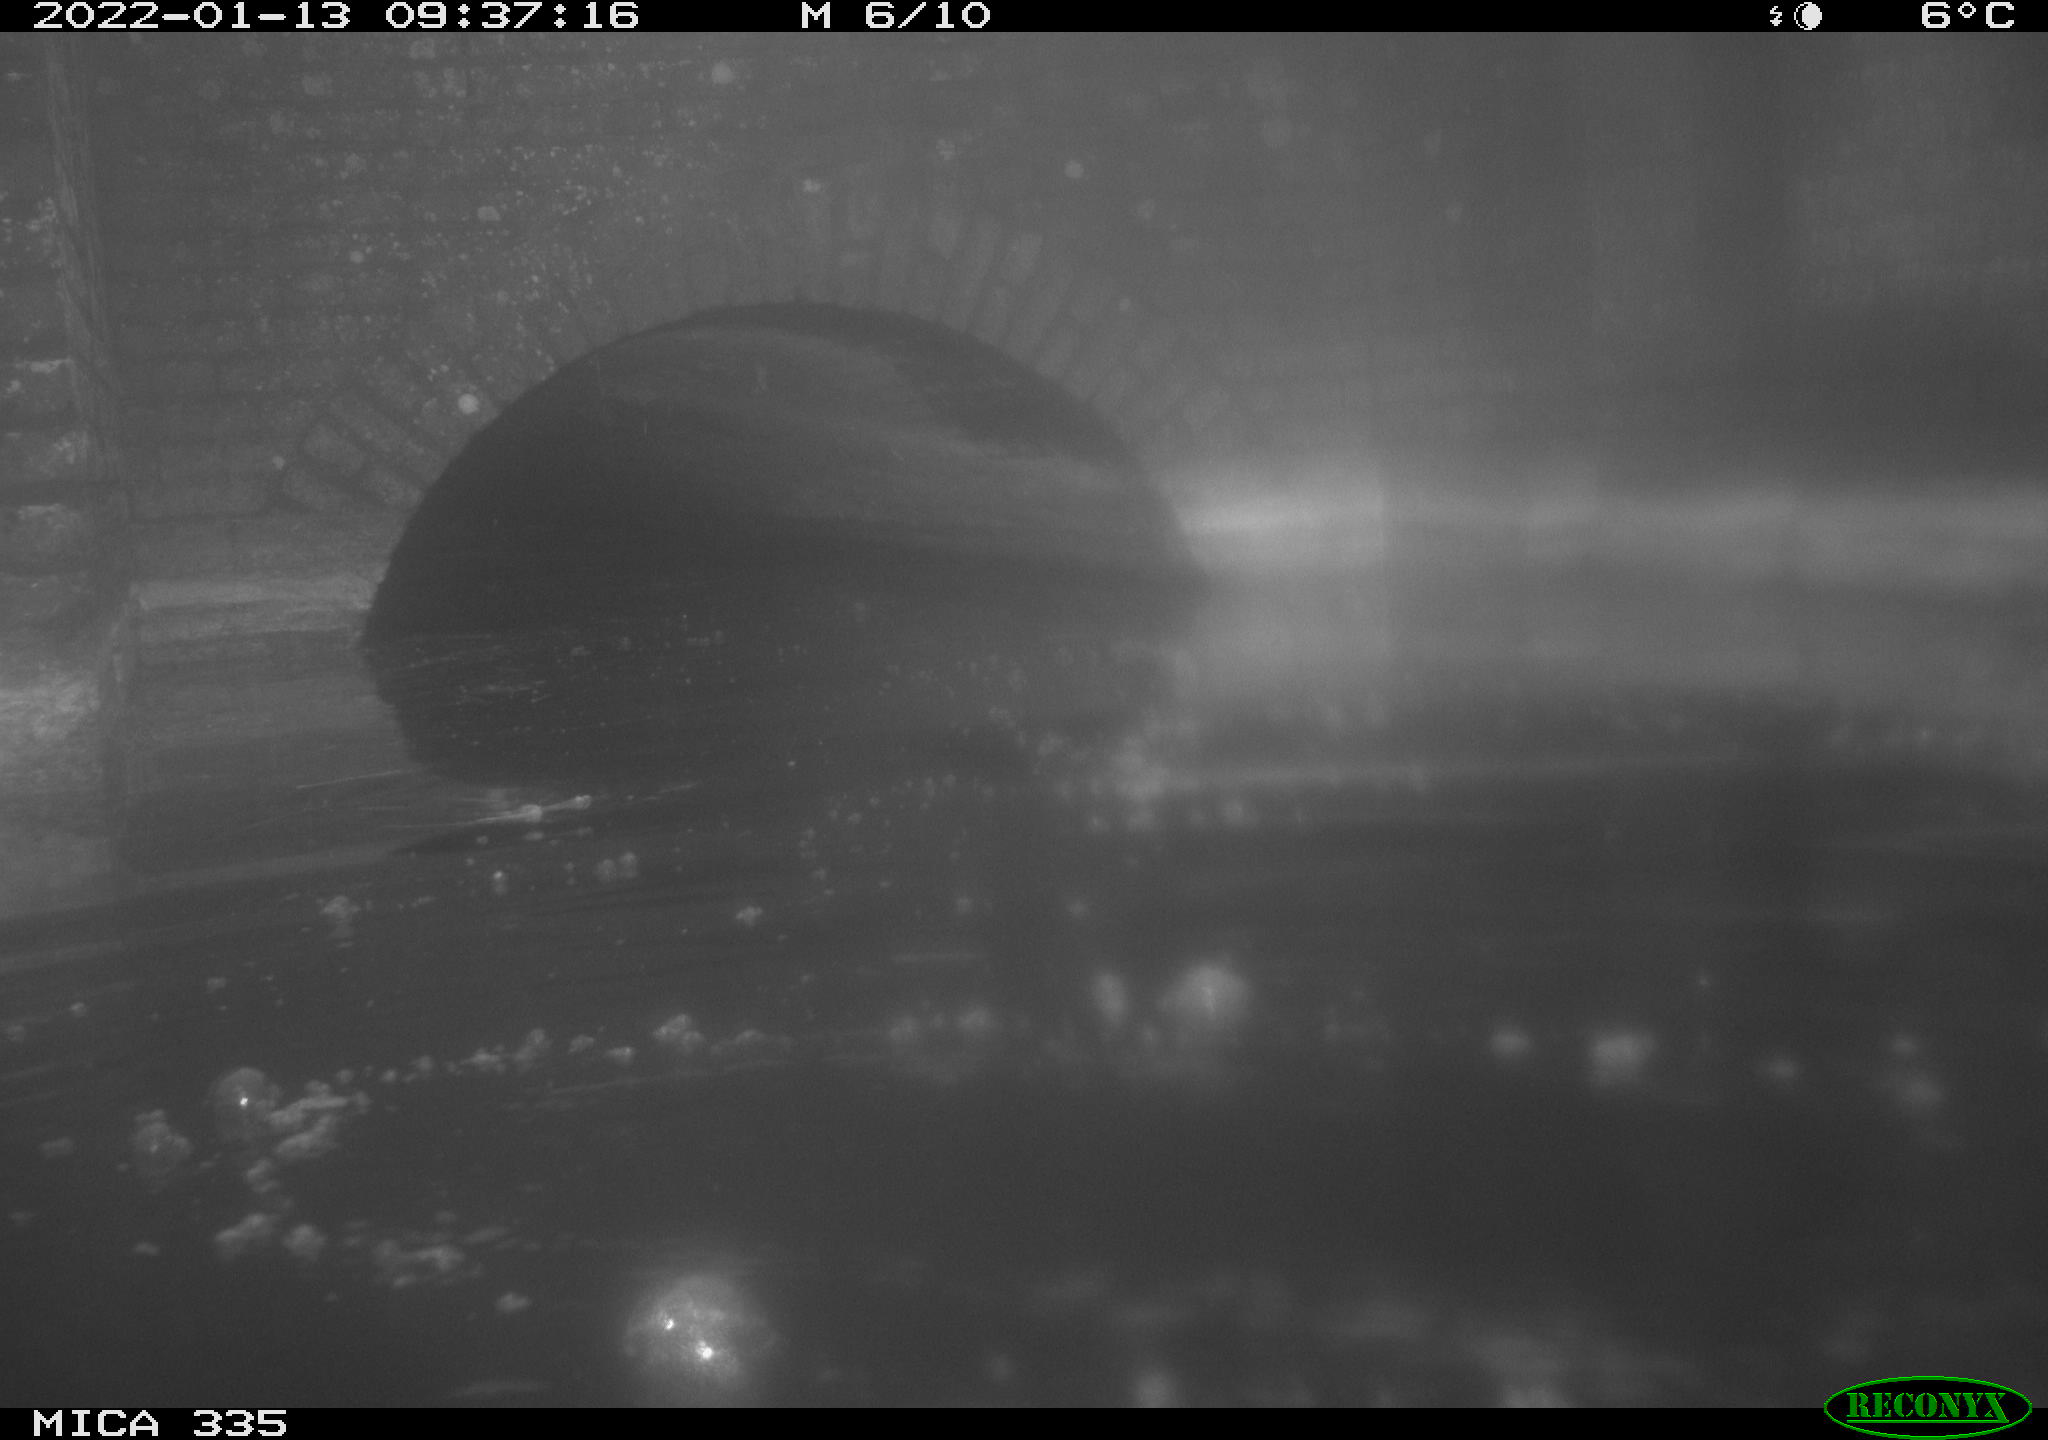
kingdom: Animalia
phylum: Chordata
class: Aves
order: Suliformes
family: Phalacrocoracidae
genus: Phalacrocorax
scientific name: Phalacrocorax carbo
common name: Great cormorant
